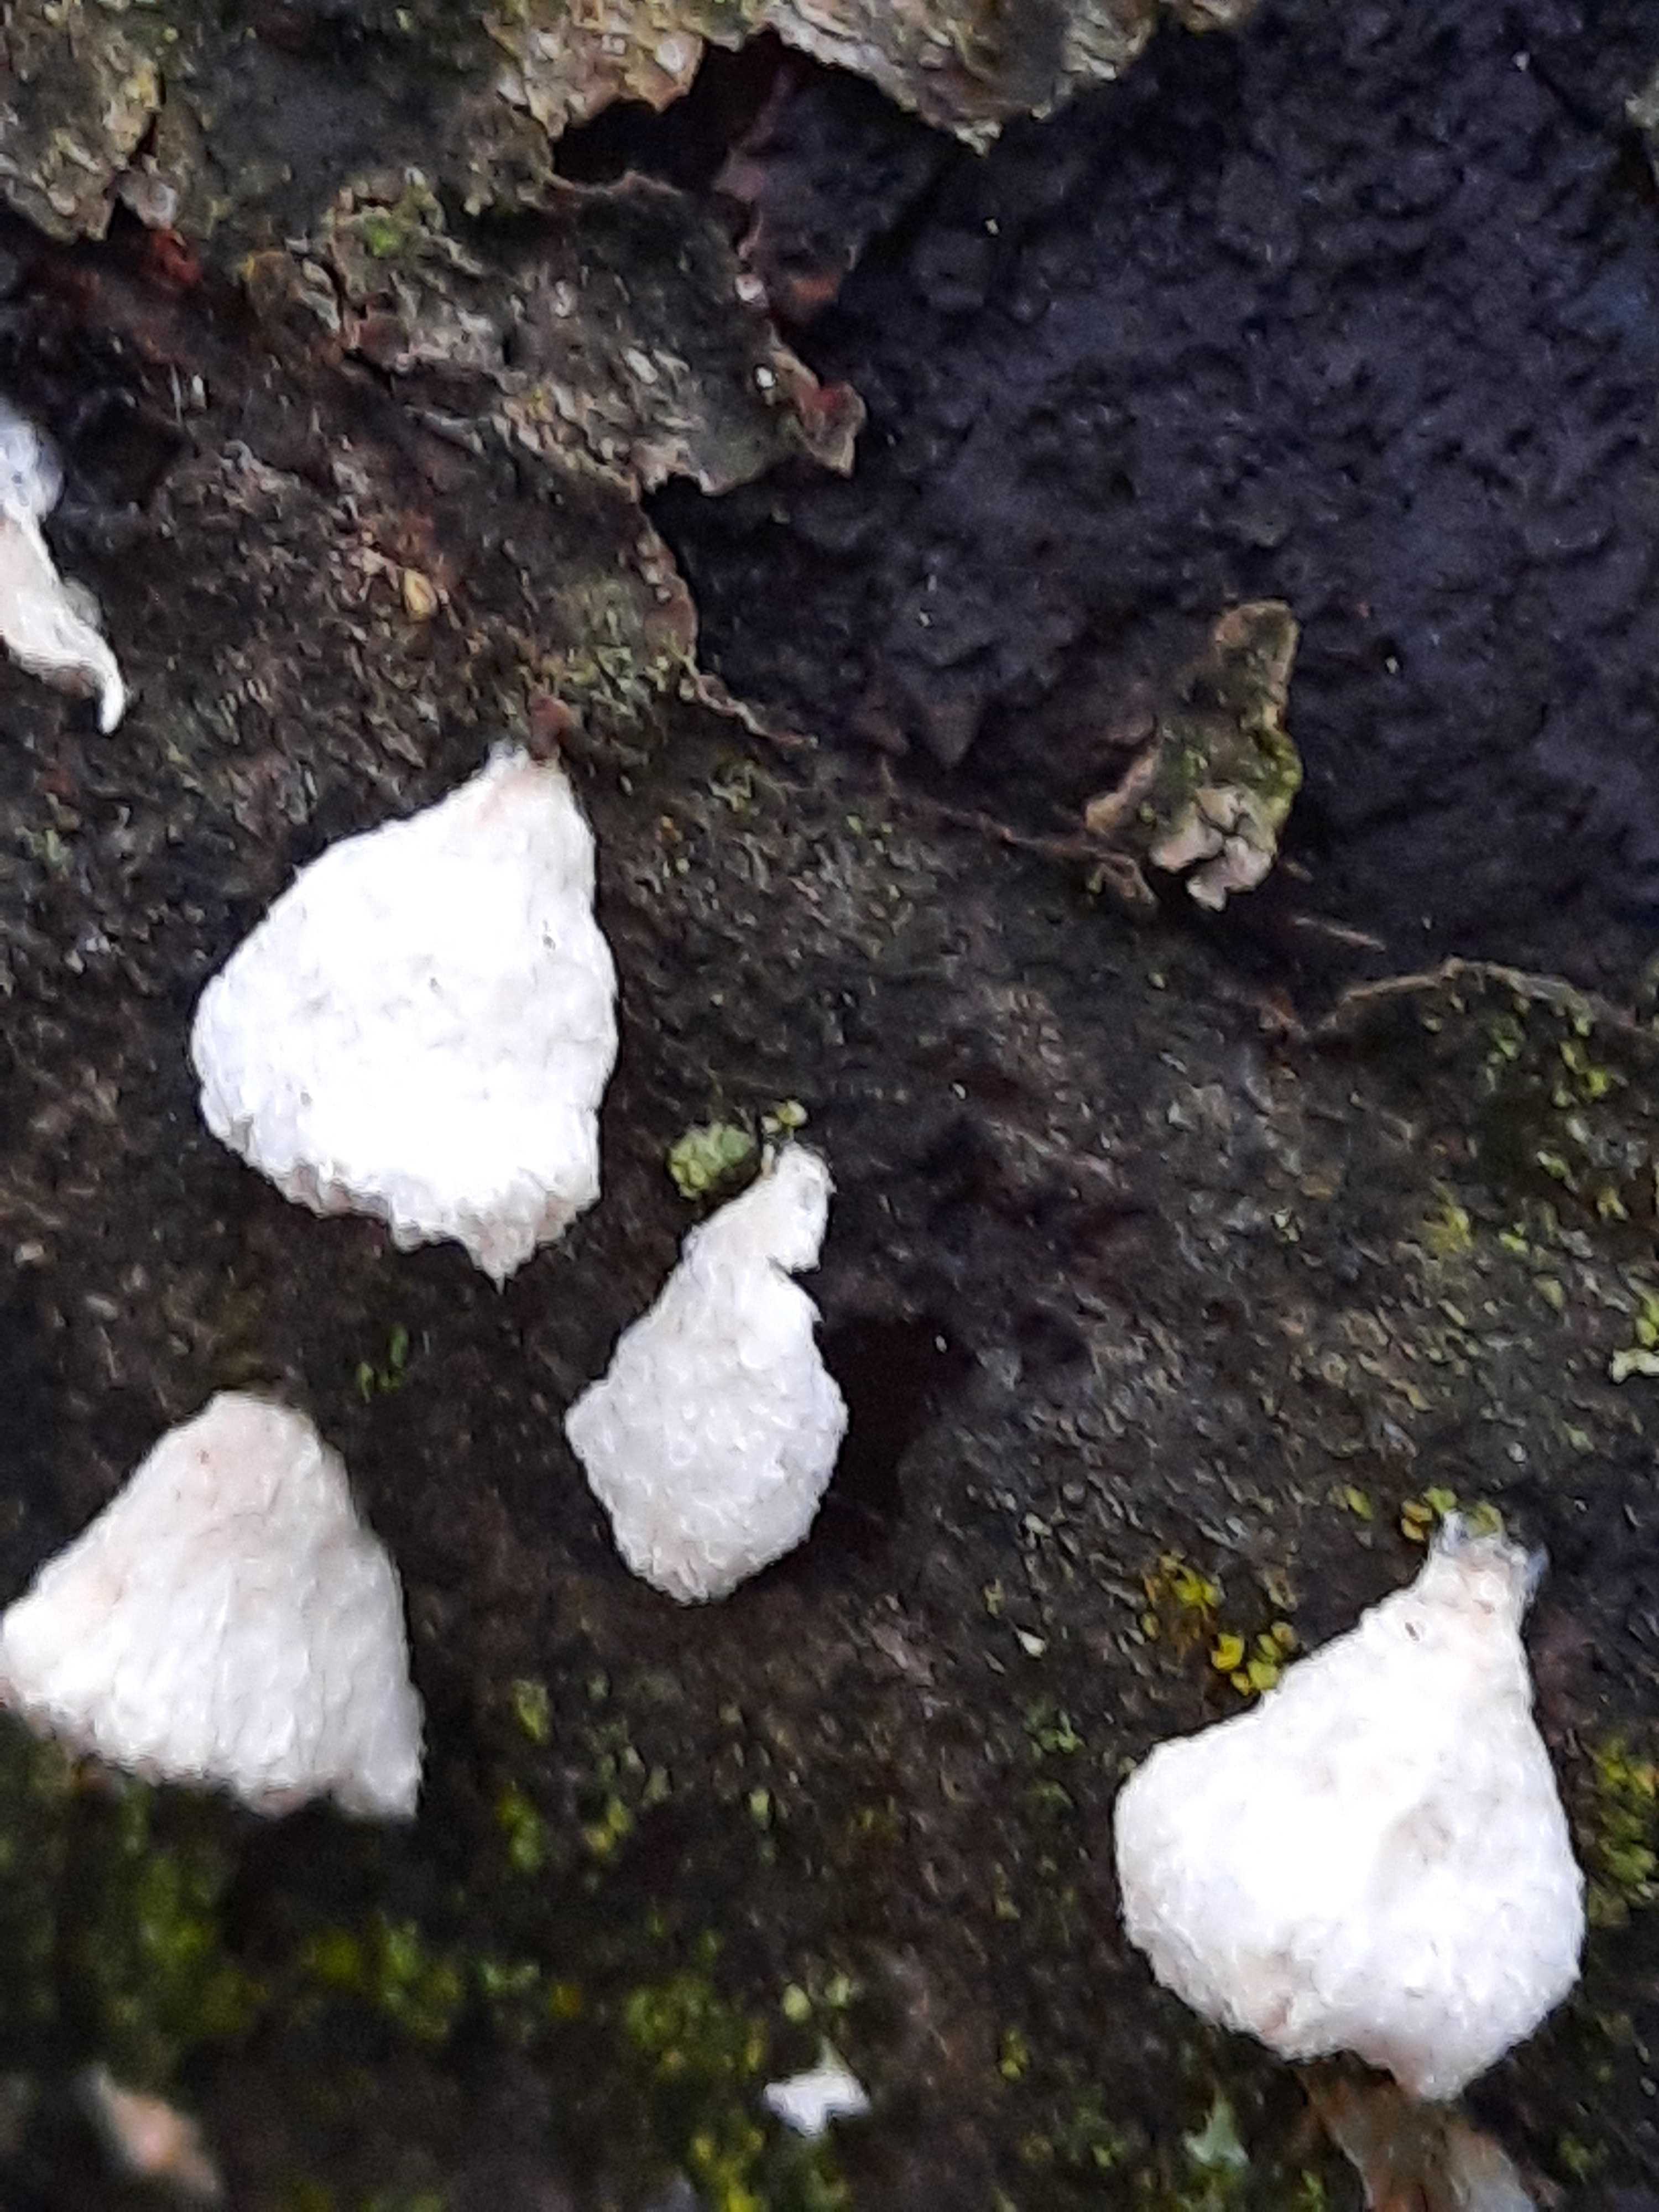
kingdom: Fungi
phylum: Basidiomycota
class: Agaricomycetes
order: Agaricales
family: Physalacriaceae
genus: Cylindrobasidium
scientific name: Cylindrobasidium evolvens
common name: sprækkehinde
